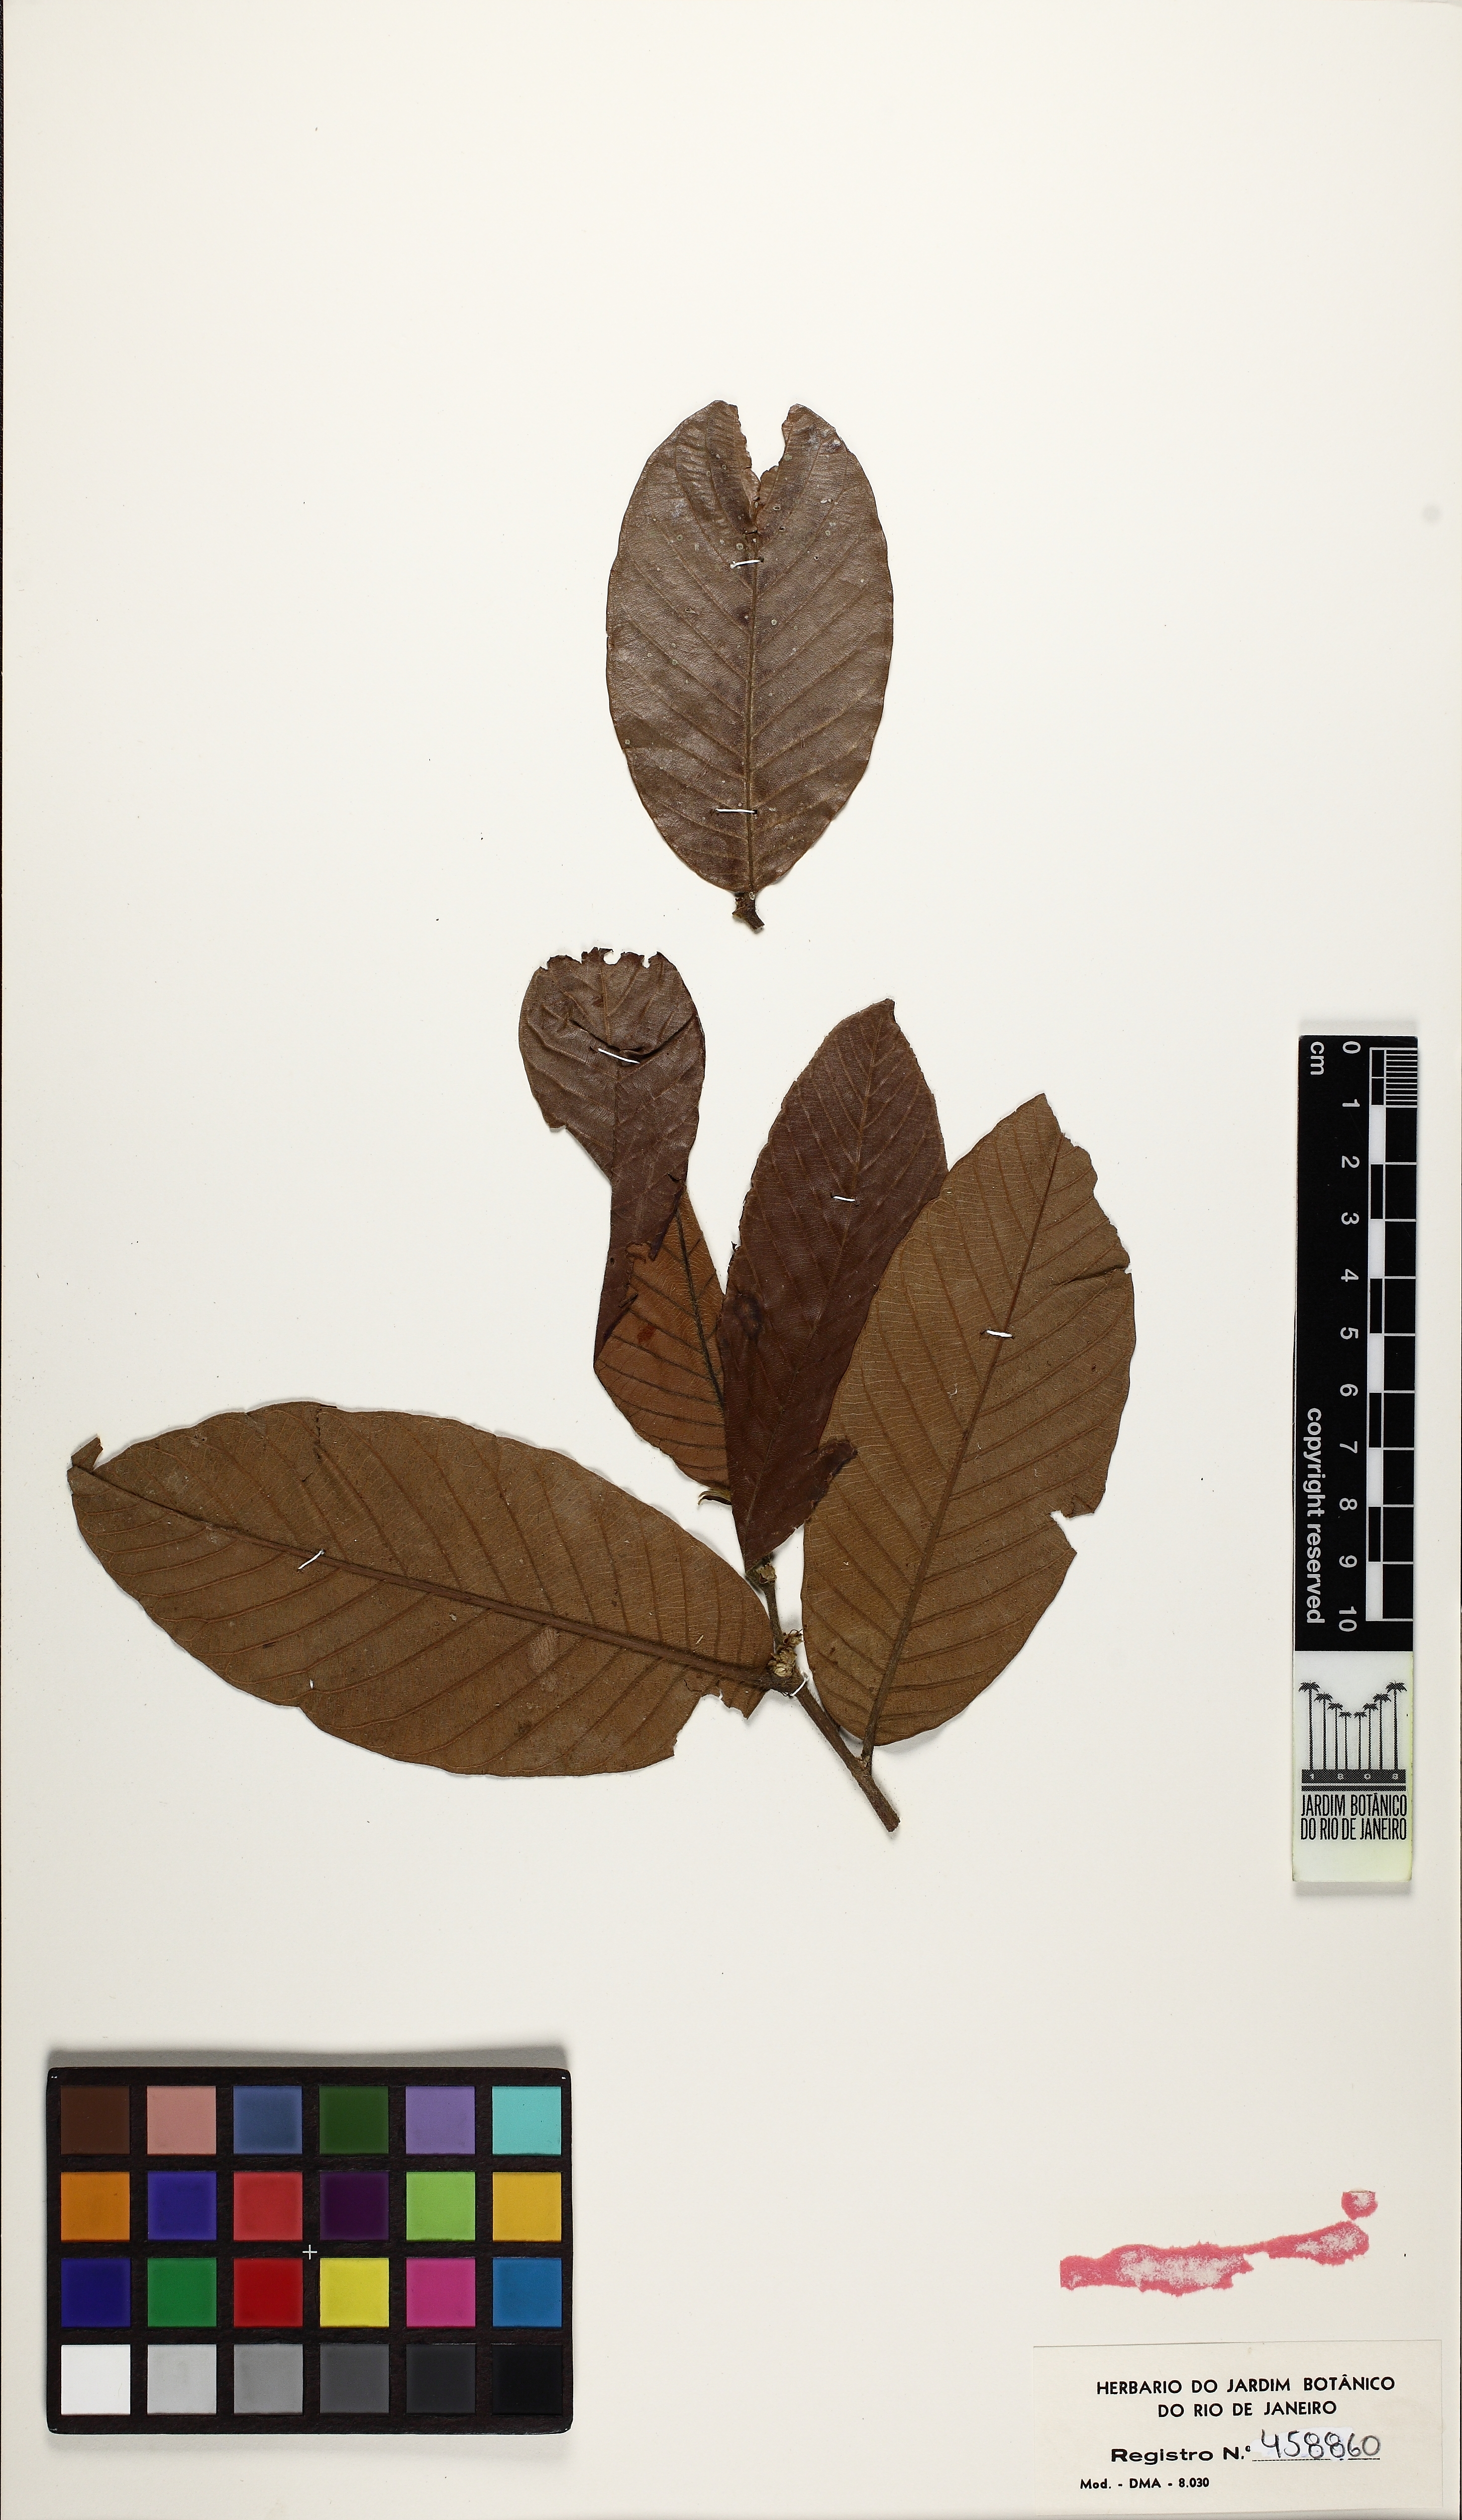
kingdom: Plantae
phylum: Tracheophyta
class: Magnoliopsida
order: Rosales
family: Moraceae
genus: Pseudolmedia
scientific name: Pseudolmedia laevis
